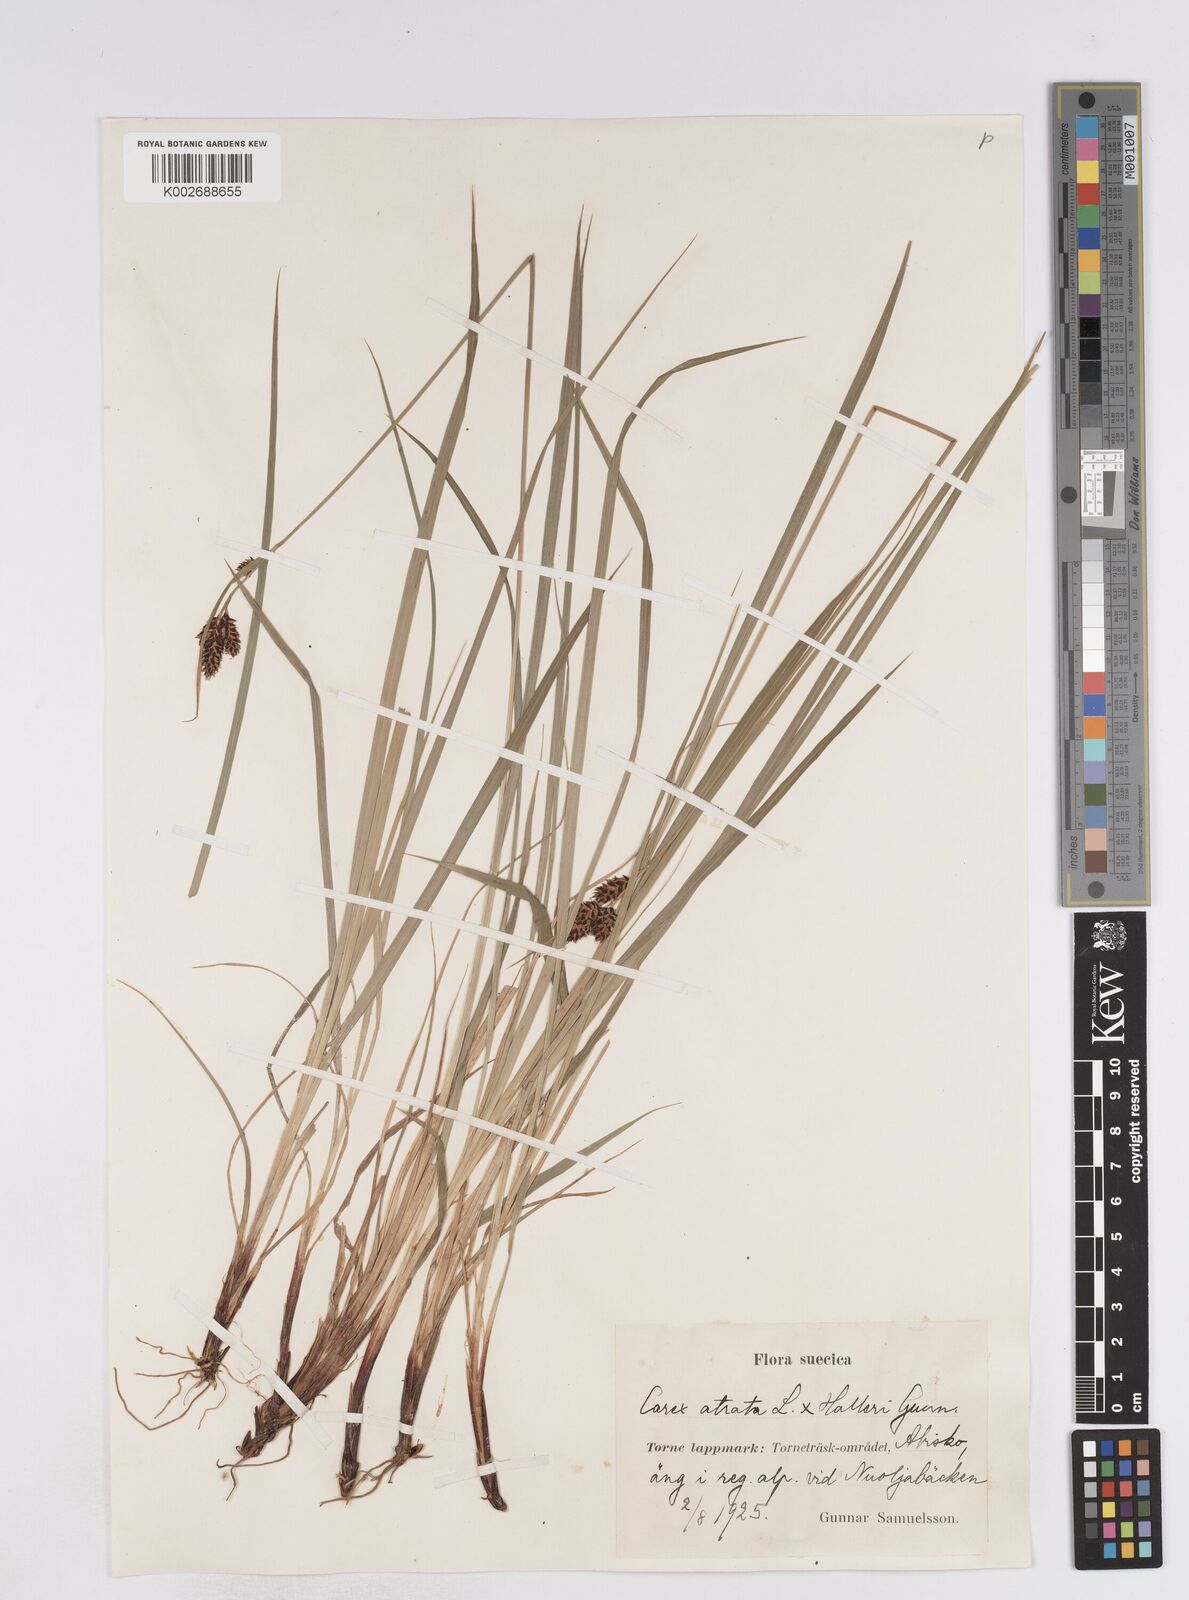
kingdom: Plantae
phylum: Tracheophyta
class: Liliopsida
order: Poales
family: Cyperaceae
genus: Carex
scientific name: Carex norvegica
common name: Close-headed alpine-sedge
